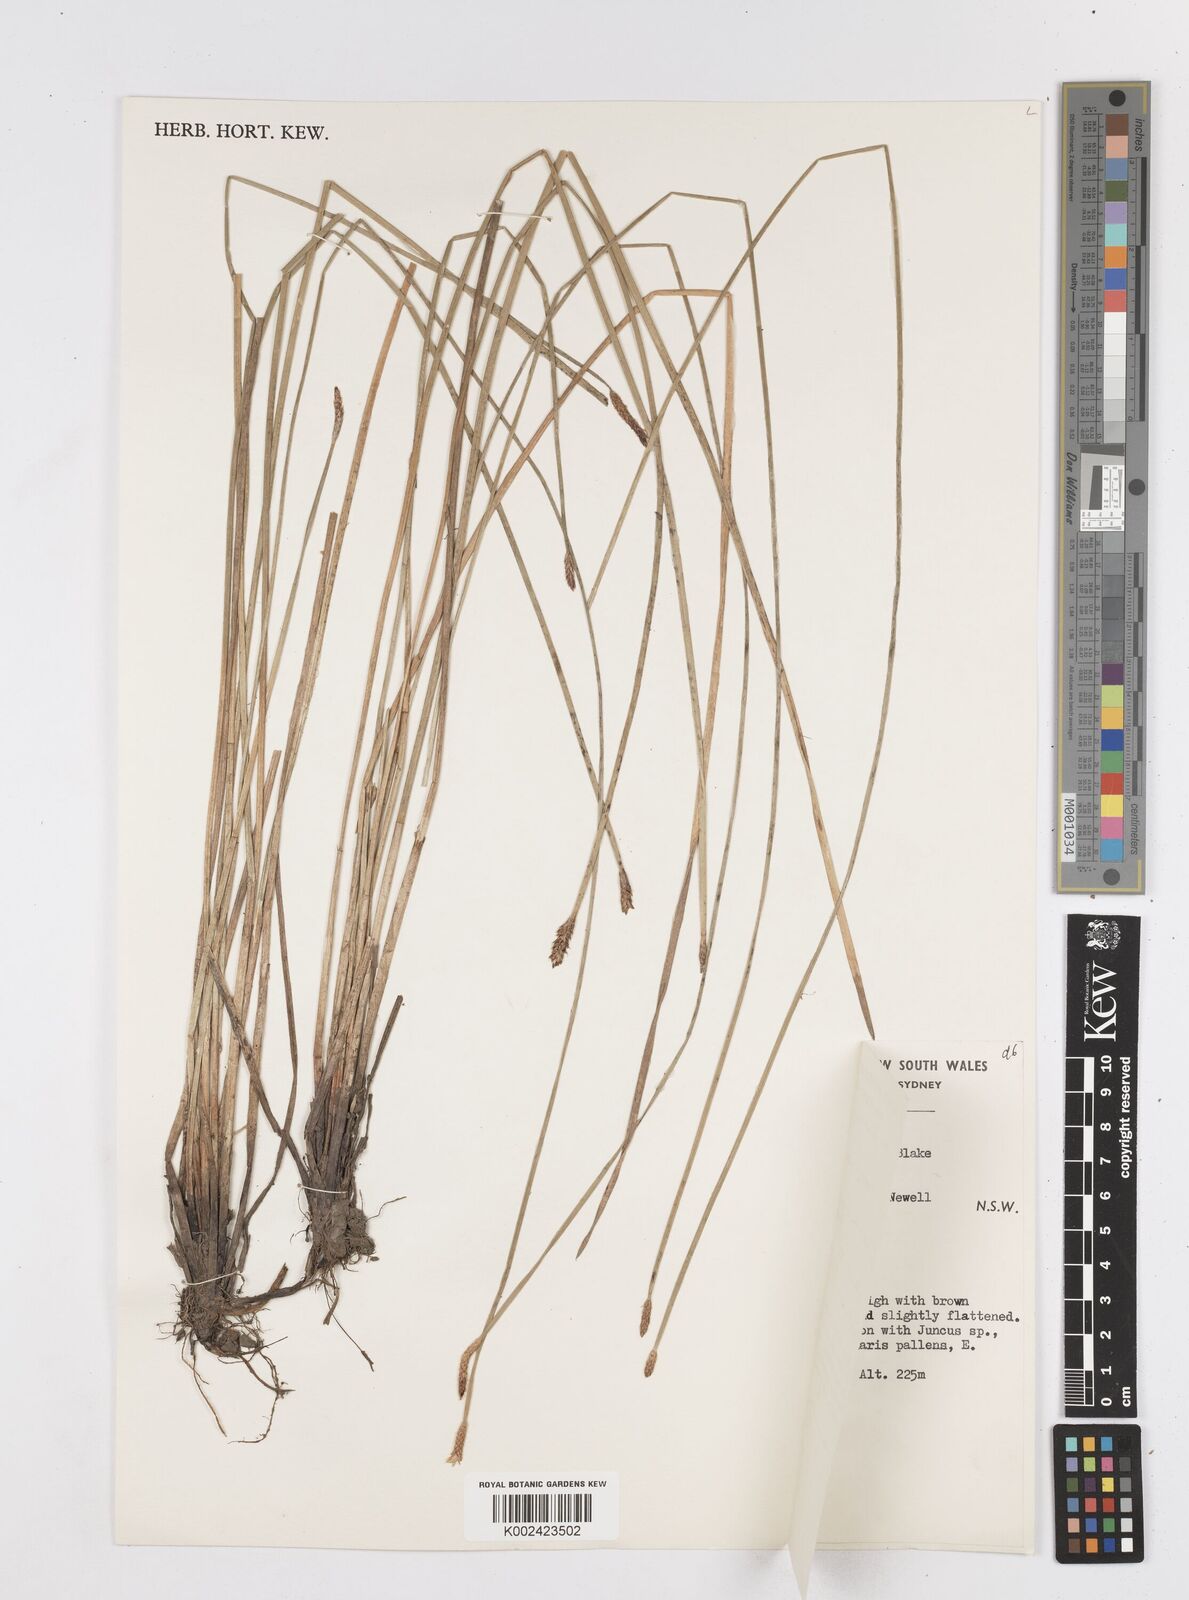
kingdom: Plantae
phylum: Tracheophyta
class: Liliopsida
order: Poales
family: Cyperaceae
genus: Eleocharis
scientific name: Eleocharis plana
